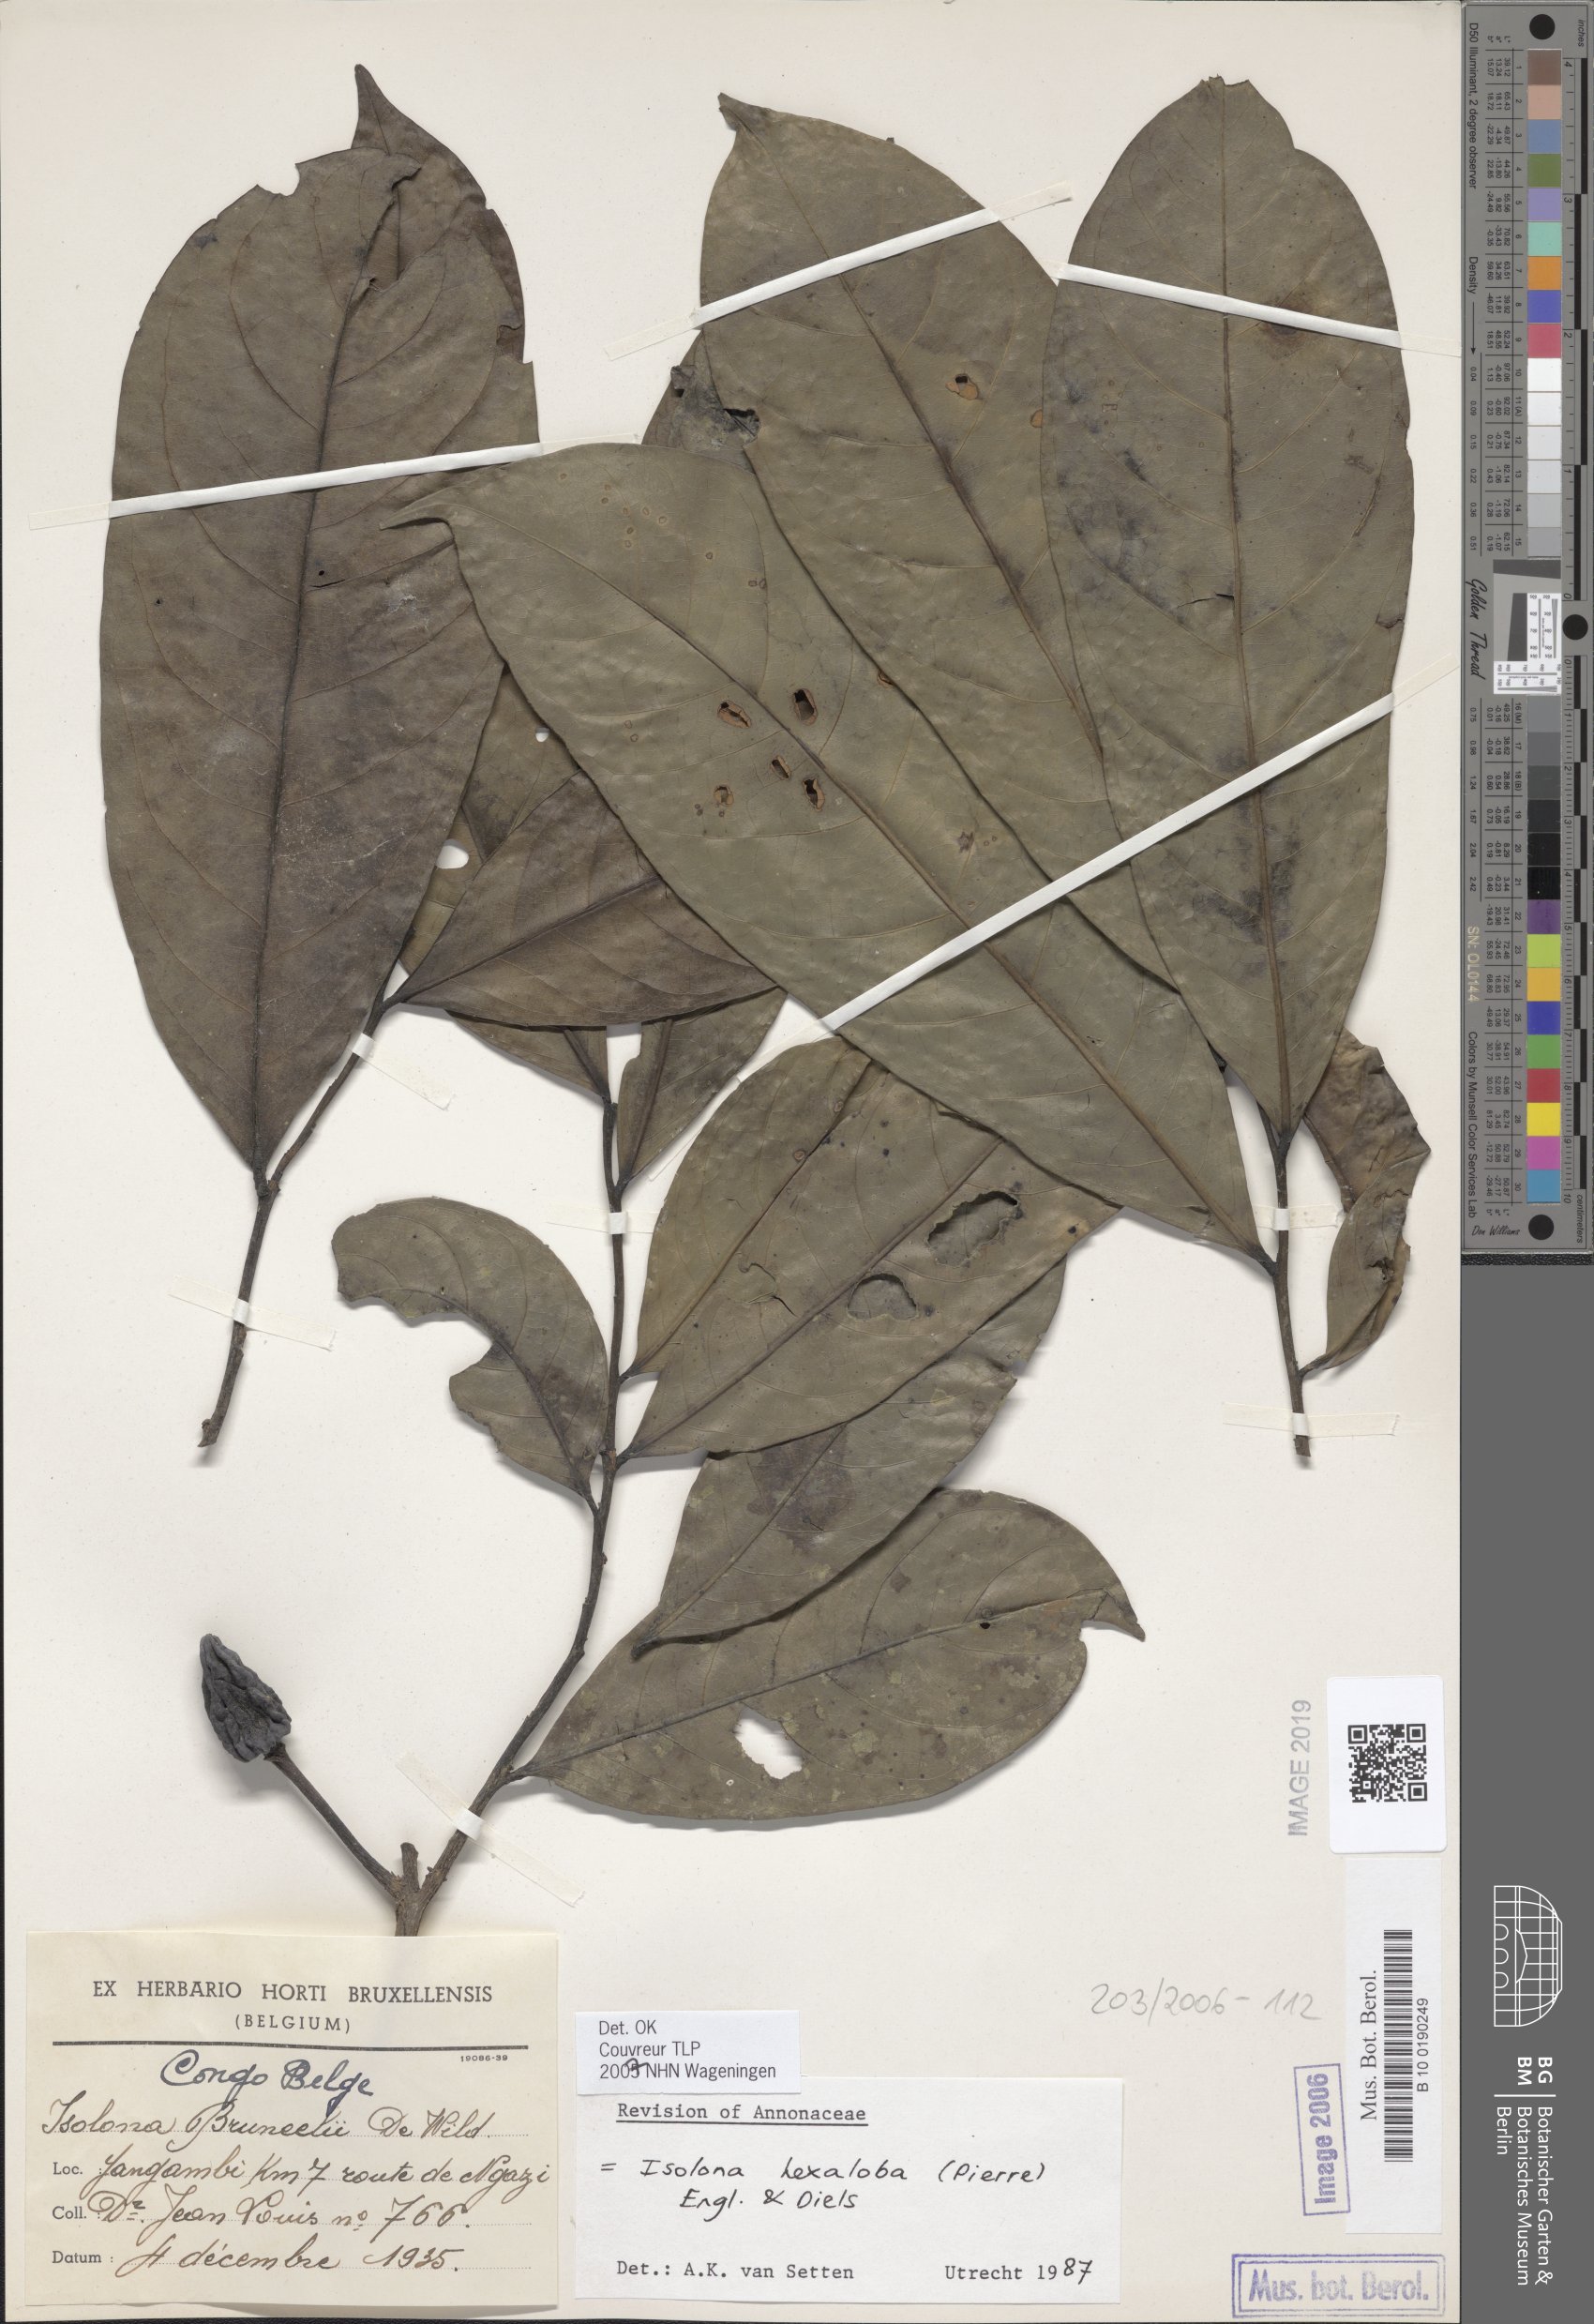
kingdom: Plantae
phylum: Tracheophyta
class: Magnoliopsida
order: Magnoliales
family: Annonaceae
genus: Isolona
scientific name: Isolona hexaloba
